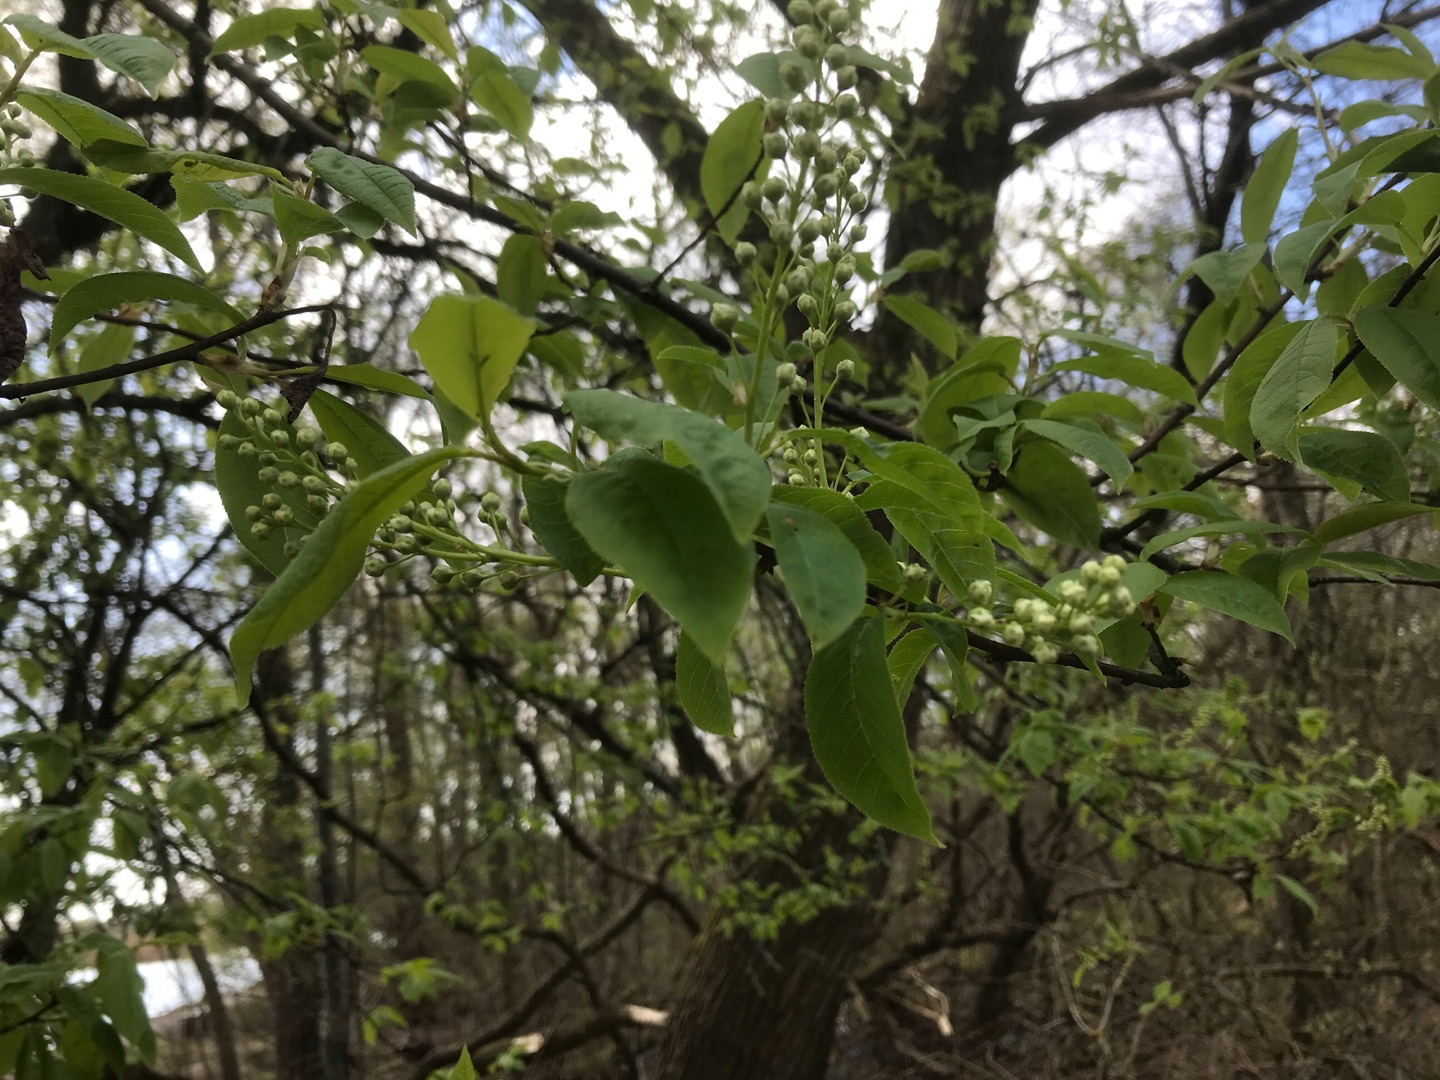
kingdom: Plantae
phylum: Tracheophyta
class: Magnoliopsida
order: Rosales
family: Rosaceae
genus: Prunus
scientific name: Prunus padus
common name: Almindelig hæg
